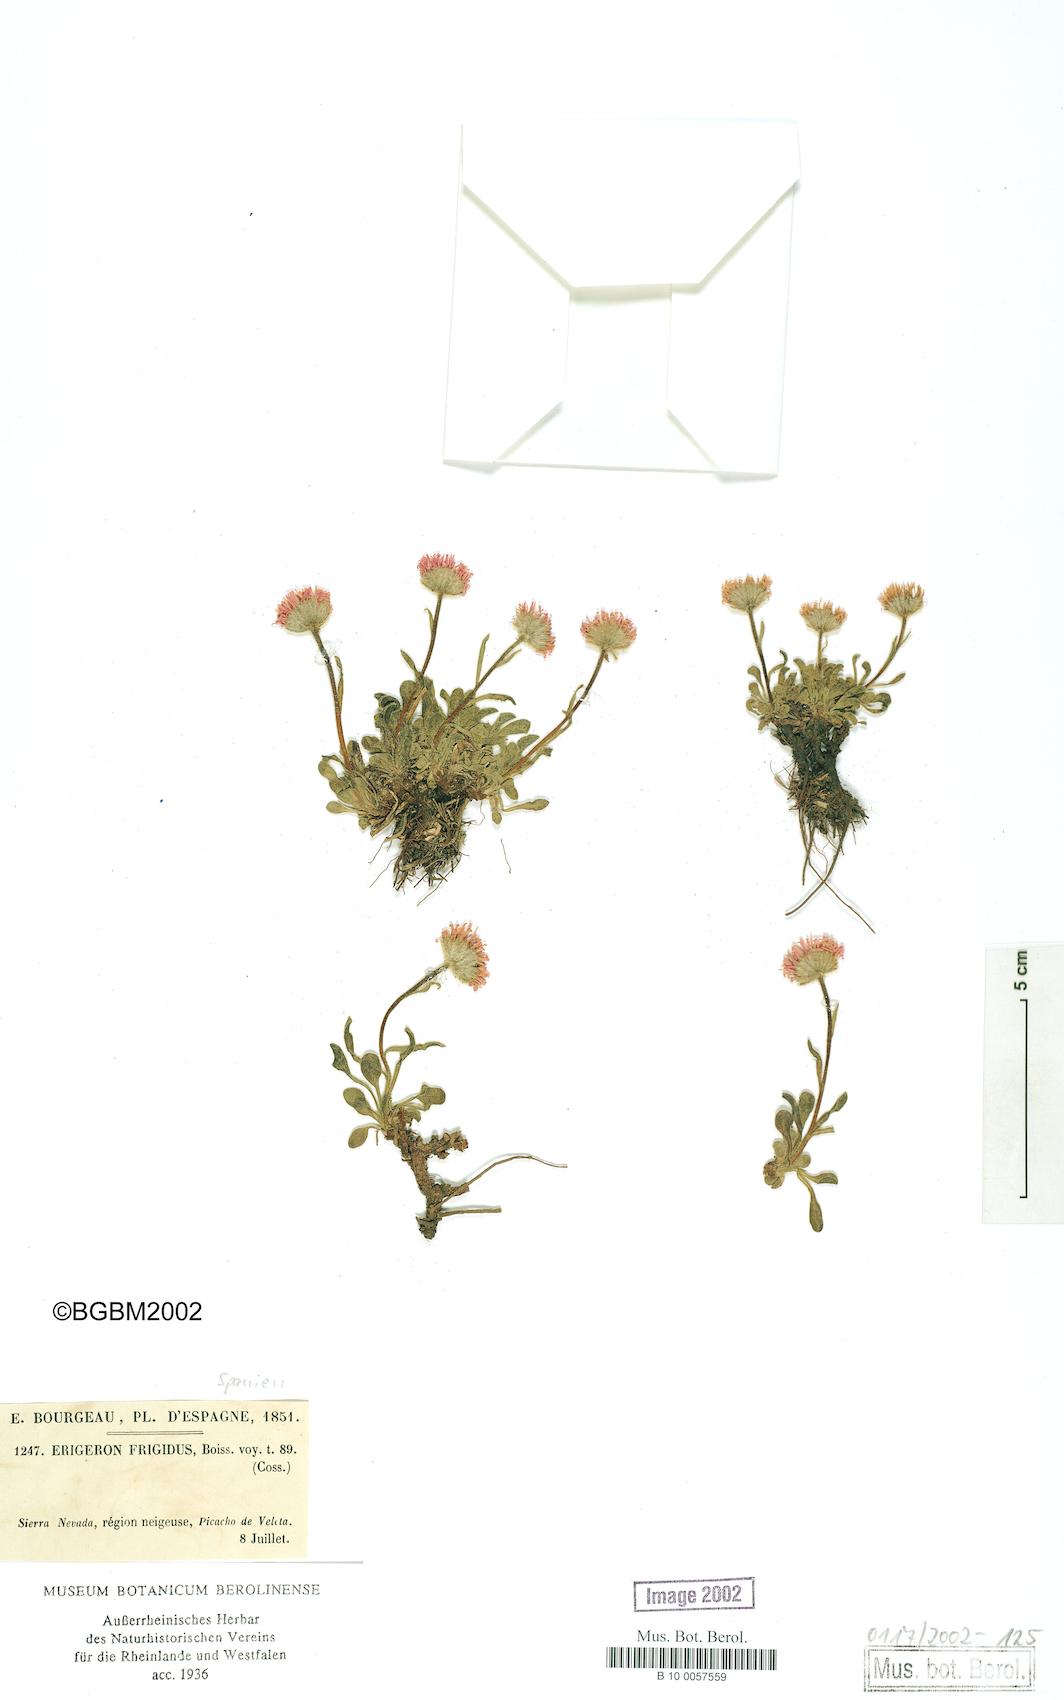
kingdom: Plantae
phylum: Tracheophyta
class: Magnoliopsida
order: Asterales
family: Asteraceae
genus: Erigeron
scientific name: Erigeron aragonensis
